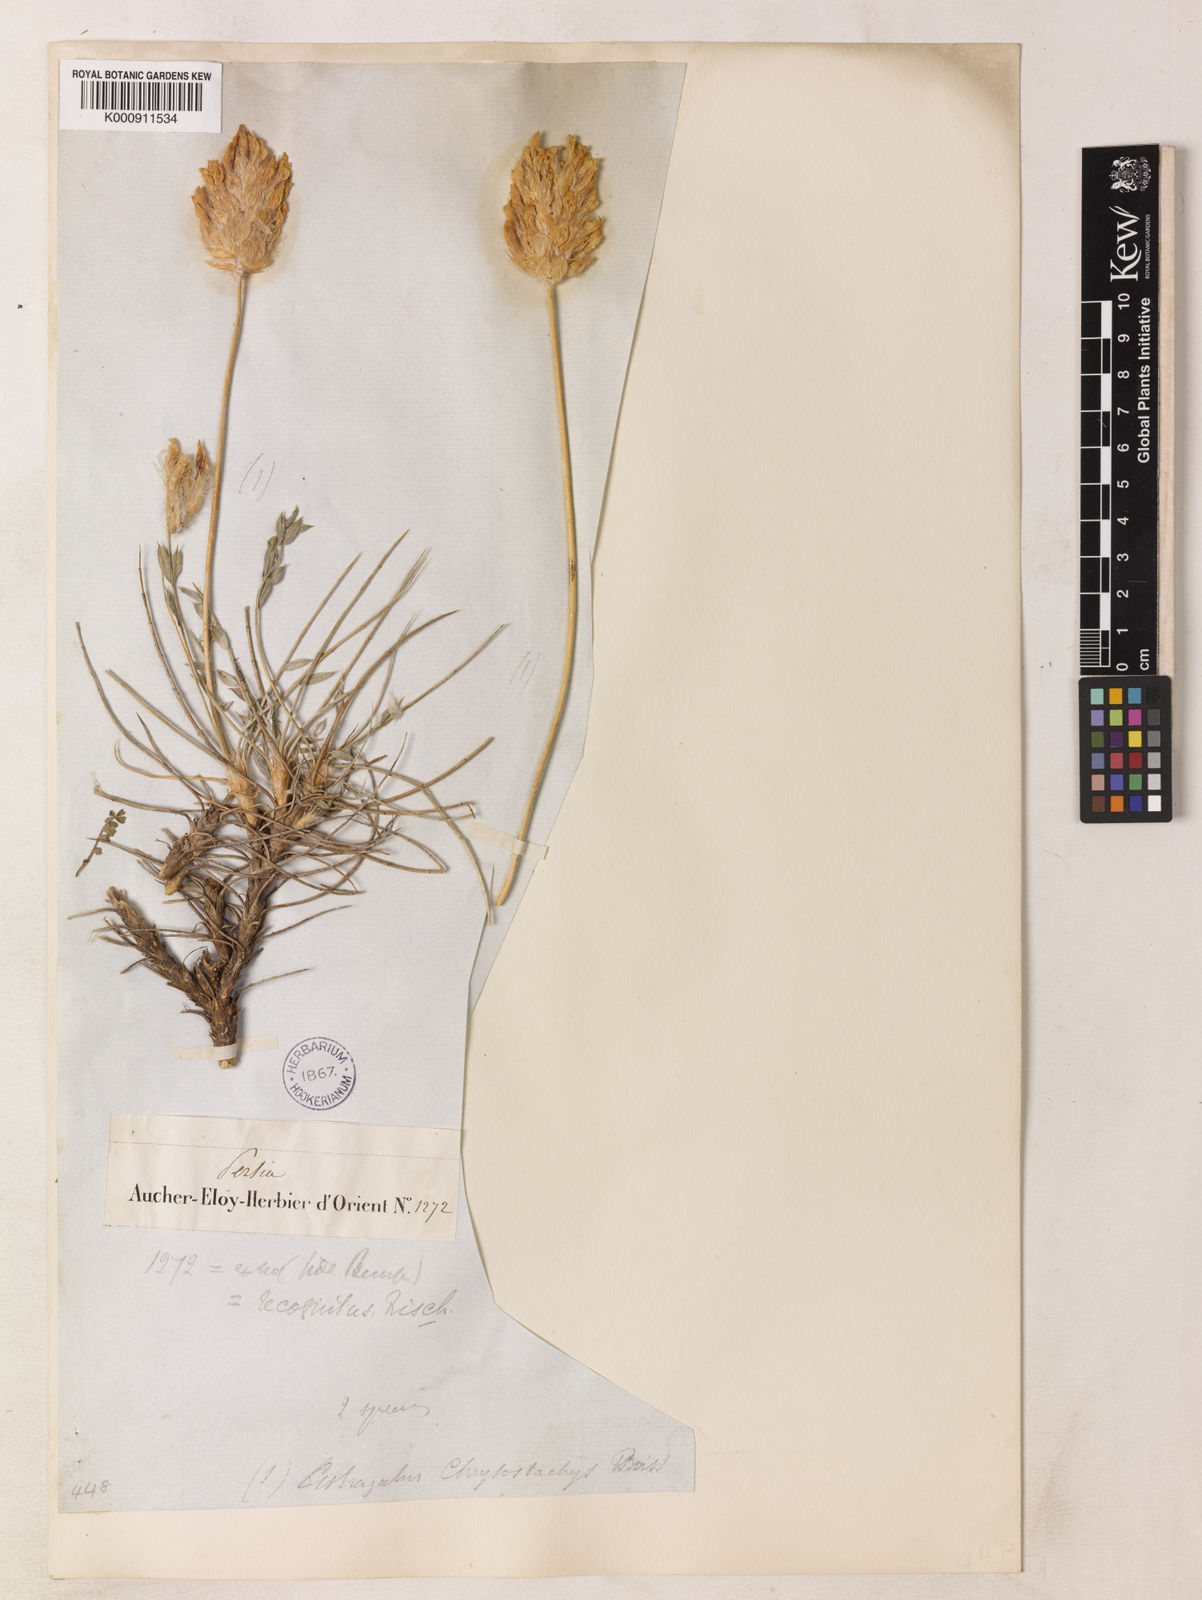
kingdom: Plantae
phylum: Tracheophyta
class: Magnoliopsida
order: Fabales
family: Fabaceae
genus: Astragalus
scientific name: Astragalus recognitus
